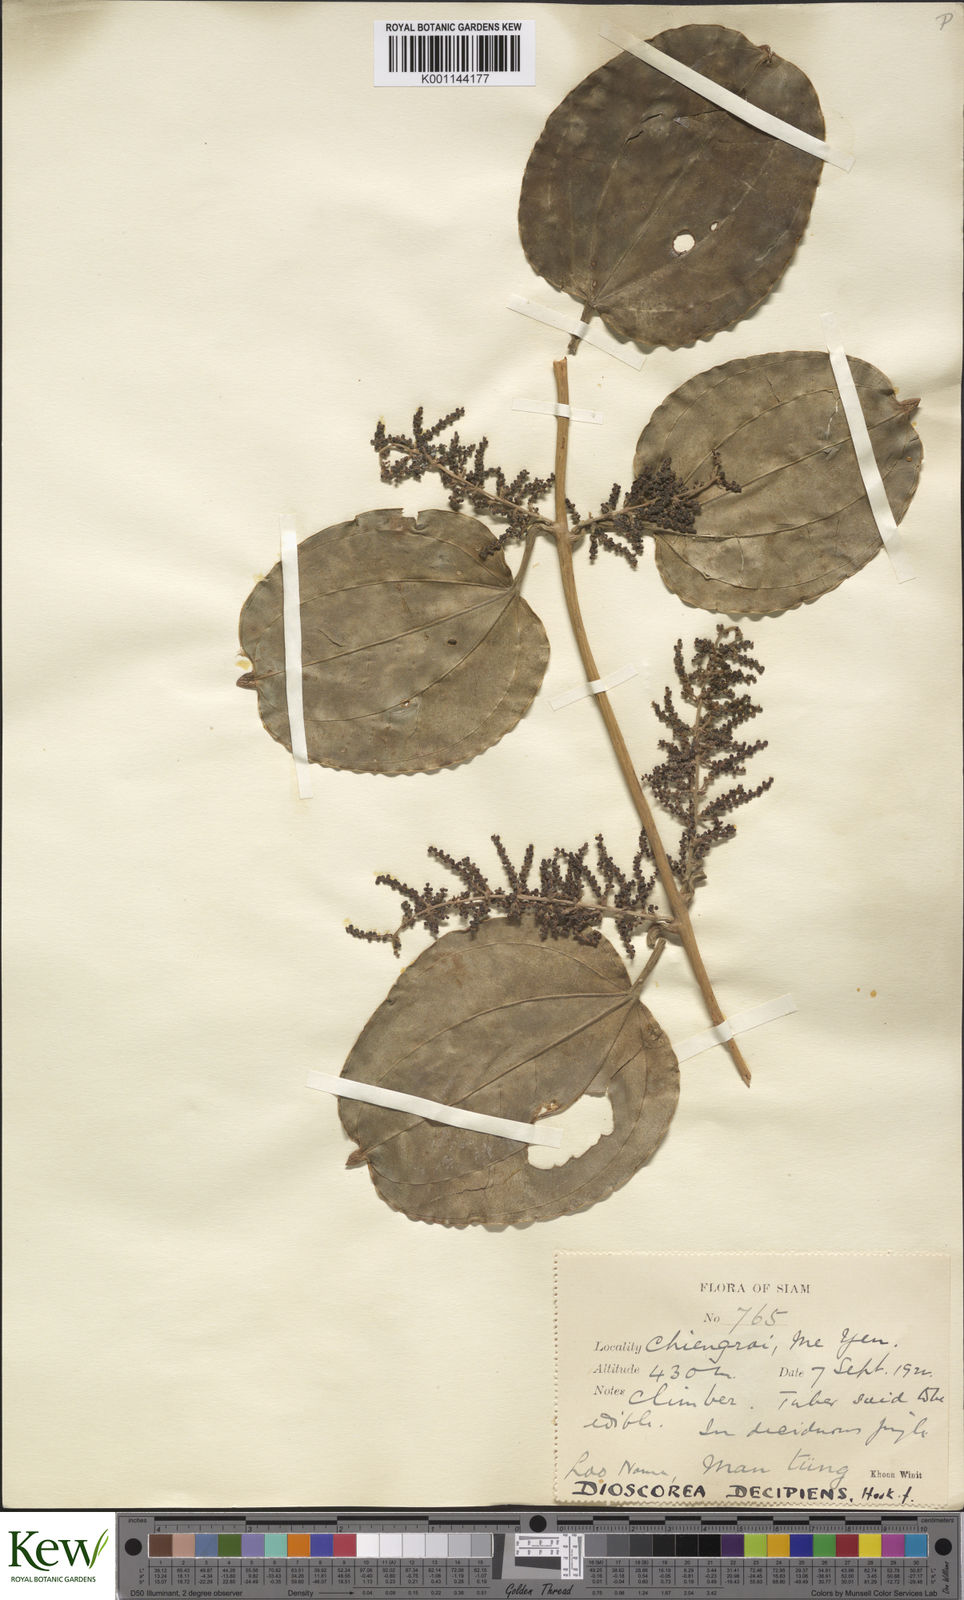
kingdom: Plantae
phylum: Tracheophyta
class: Liliopsida
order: Dioscoreales
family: Dioscoreaceae
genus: Dioscorea
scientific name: Dioscorea decipiens
